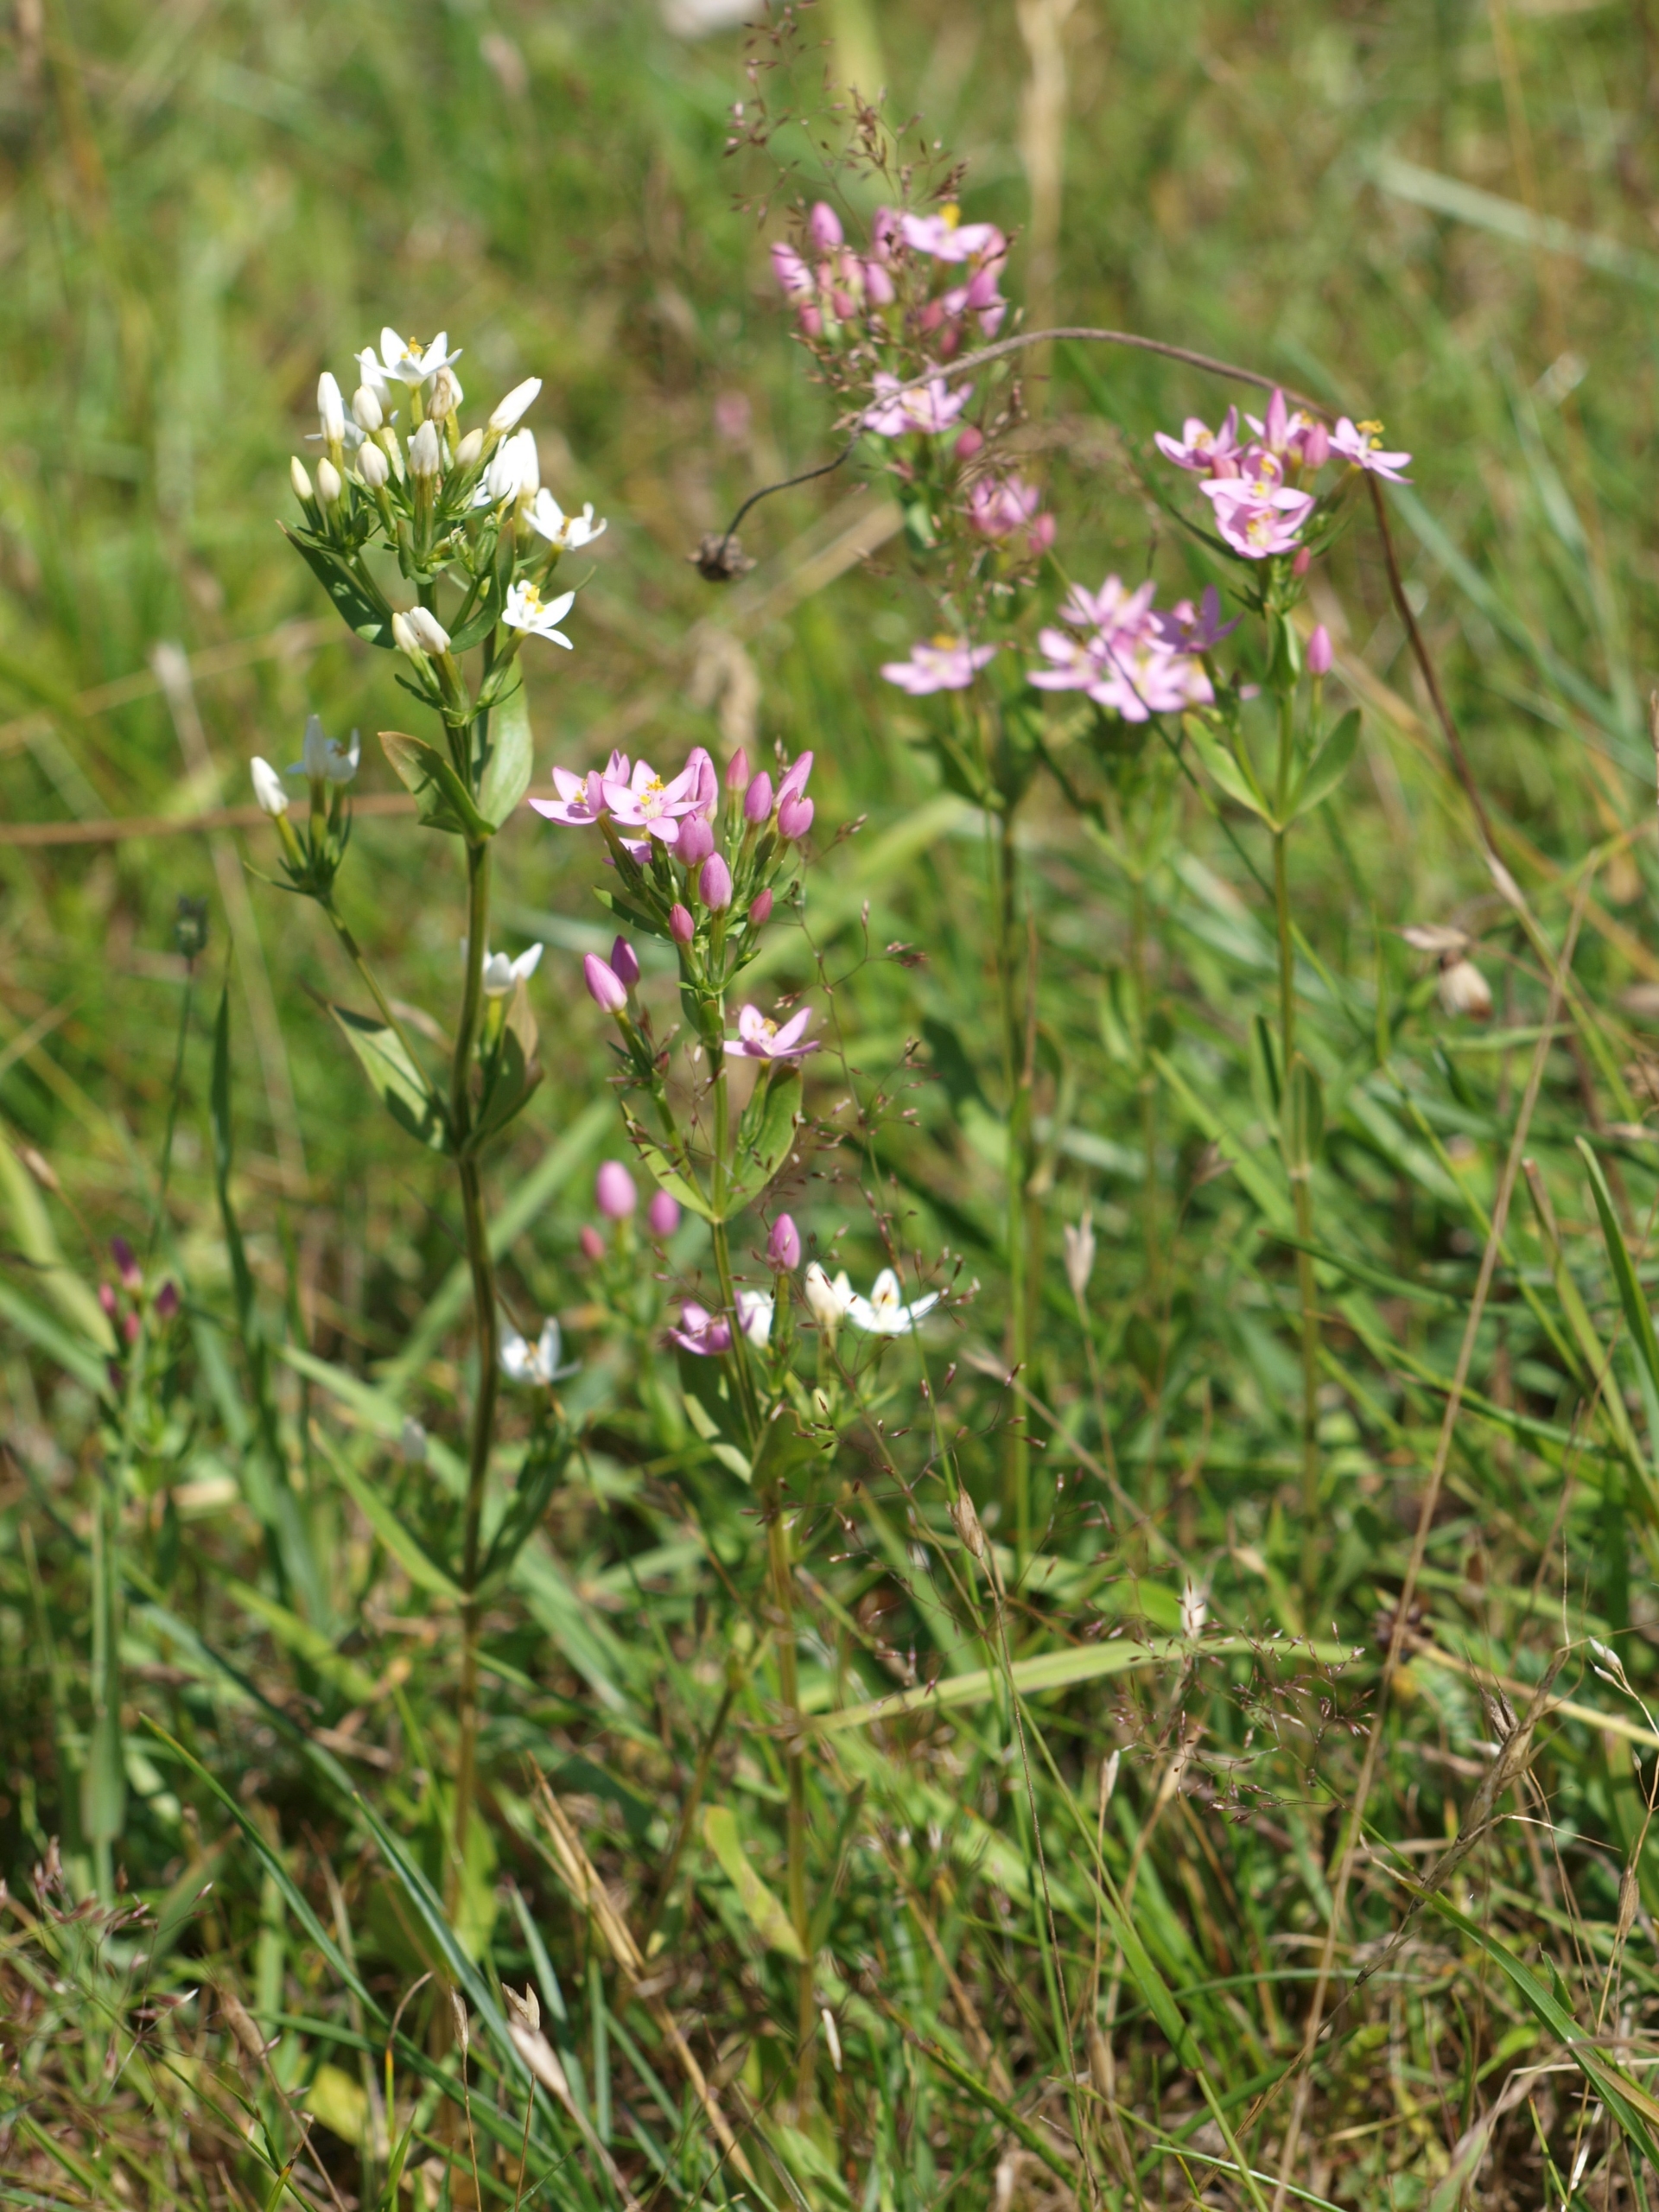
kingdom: Plantae
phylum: Tracheophyta
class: Magnoliopsida
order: Gentianales
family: Gentianaceae
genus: Centaurium
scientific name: Centaurium erythraea
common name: Mark-tusindgylden
